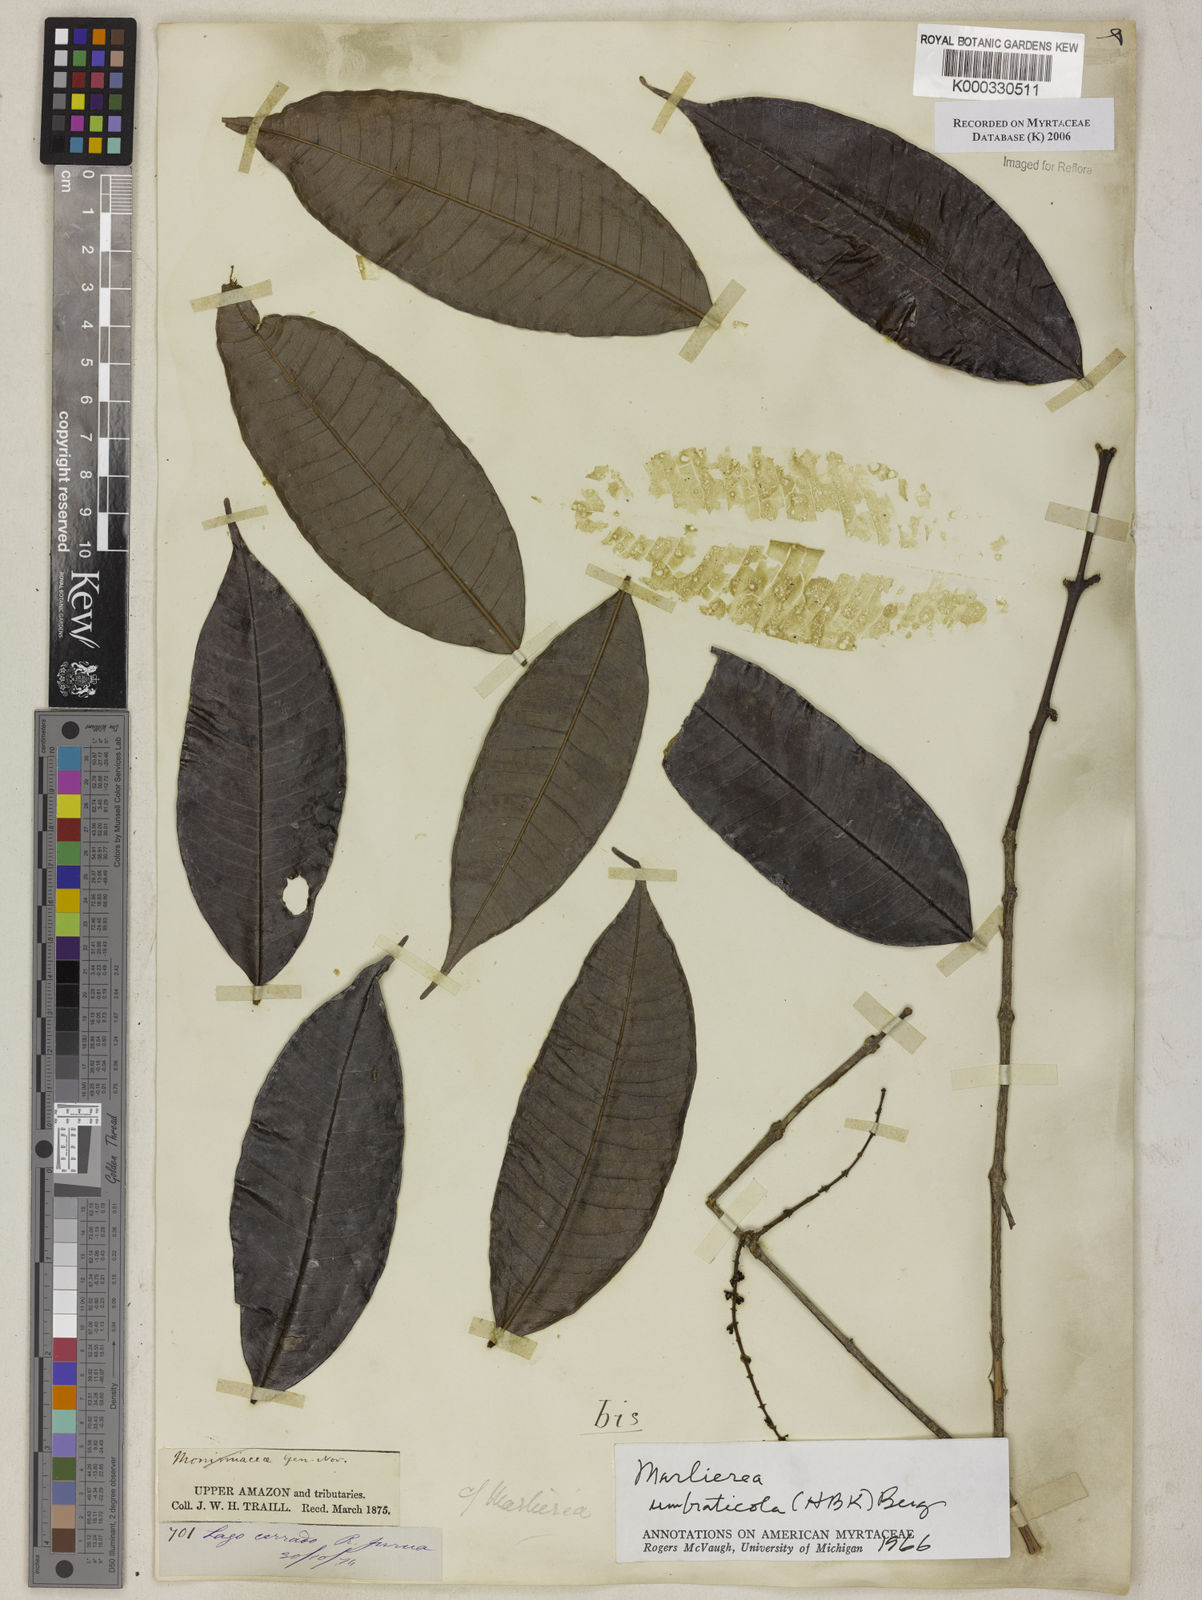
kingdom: Plantae
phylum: Tracheophyta
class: Magnoliopsida
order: Myrtales
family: Myrtaceae
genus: Myrcia
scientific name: Myrcia umbraticola
